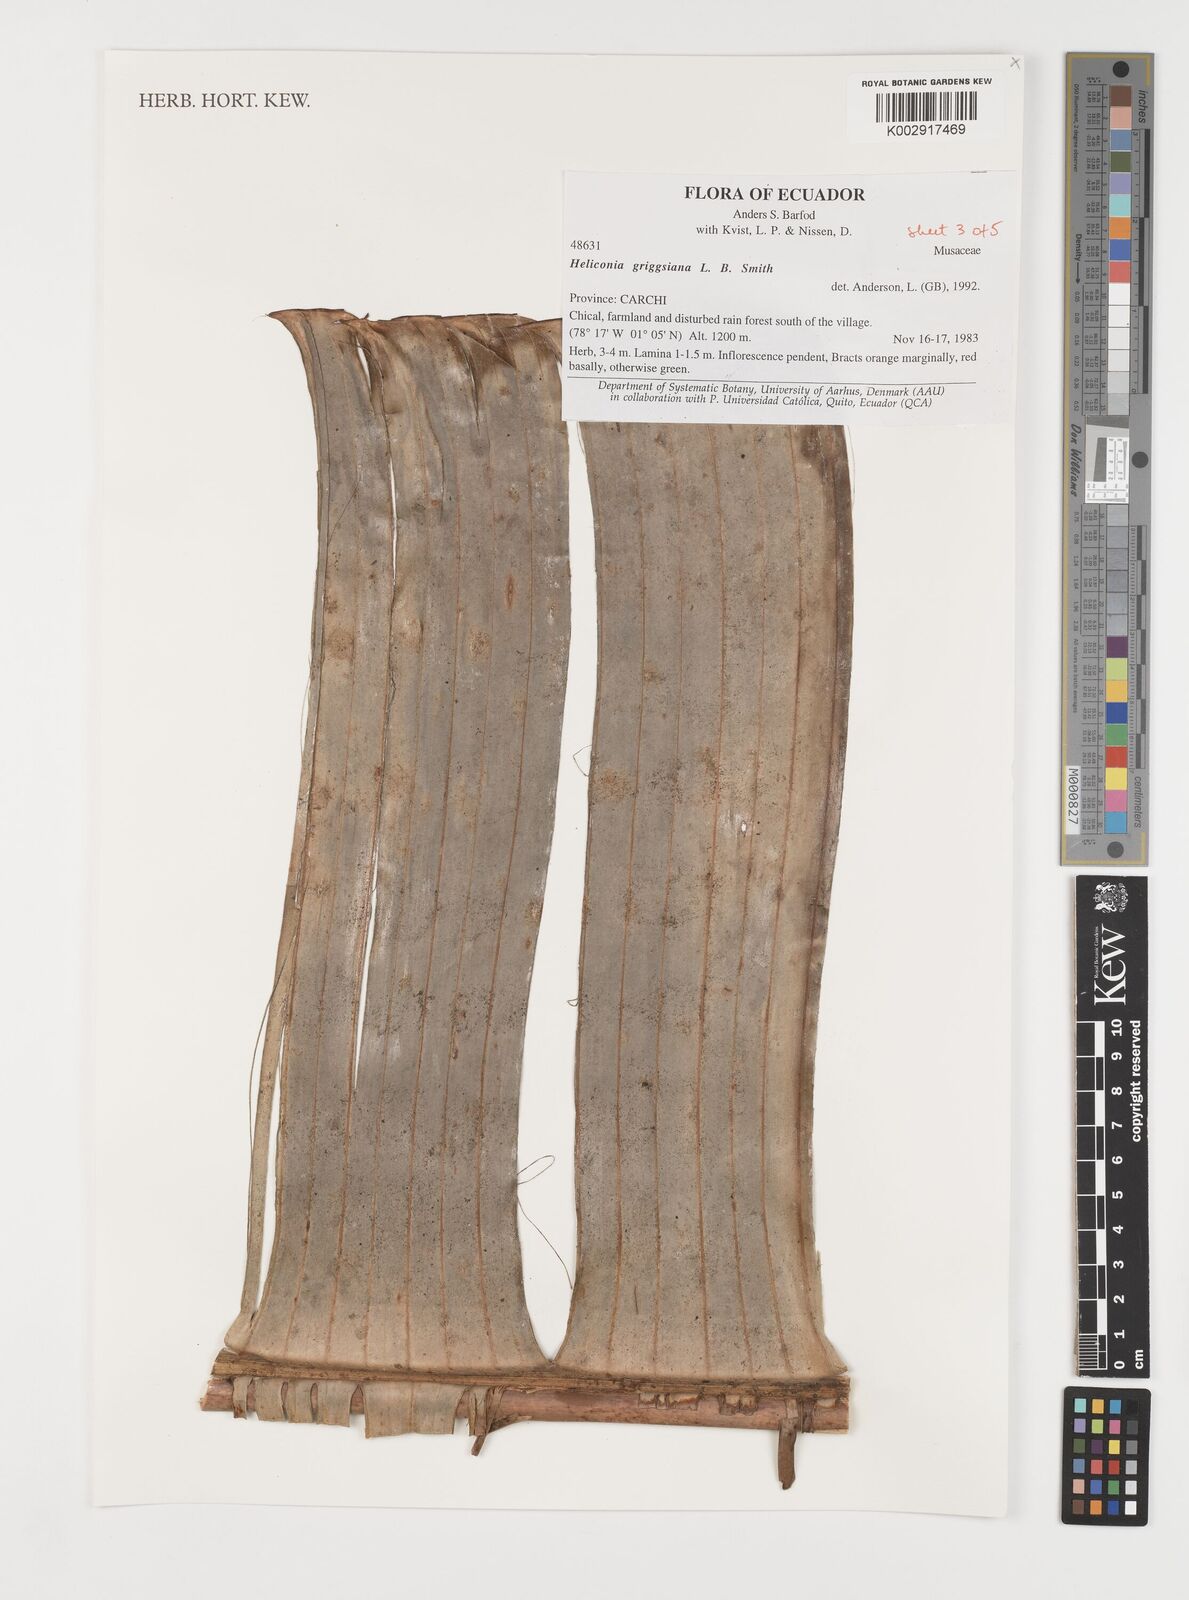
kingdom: Plantae
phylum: Tracheophyta
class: Liliopsida
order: Zingiberales
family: Heliconiaceae
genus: Heliconia
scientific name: Heliconia griggsiana
